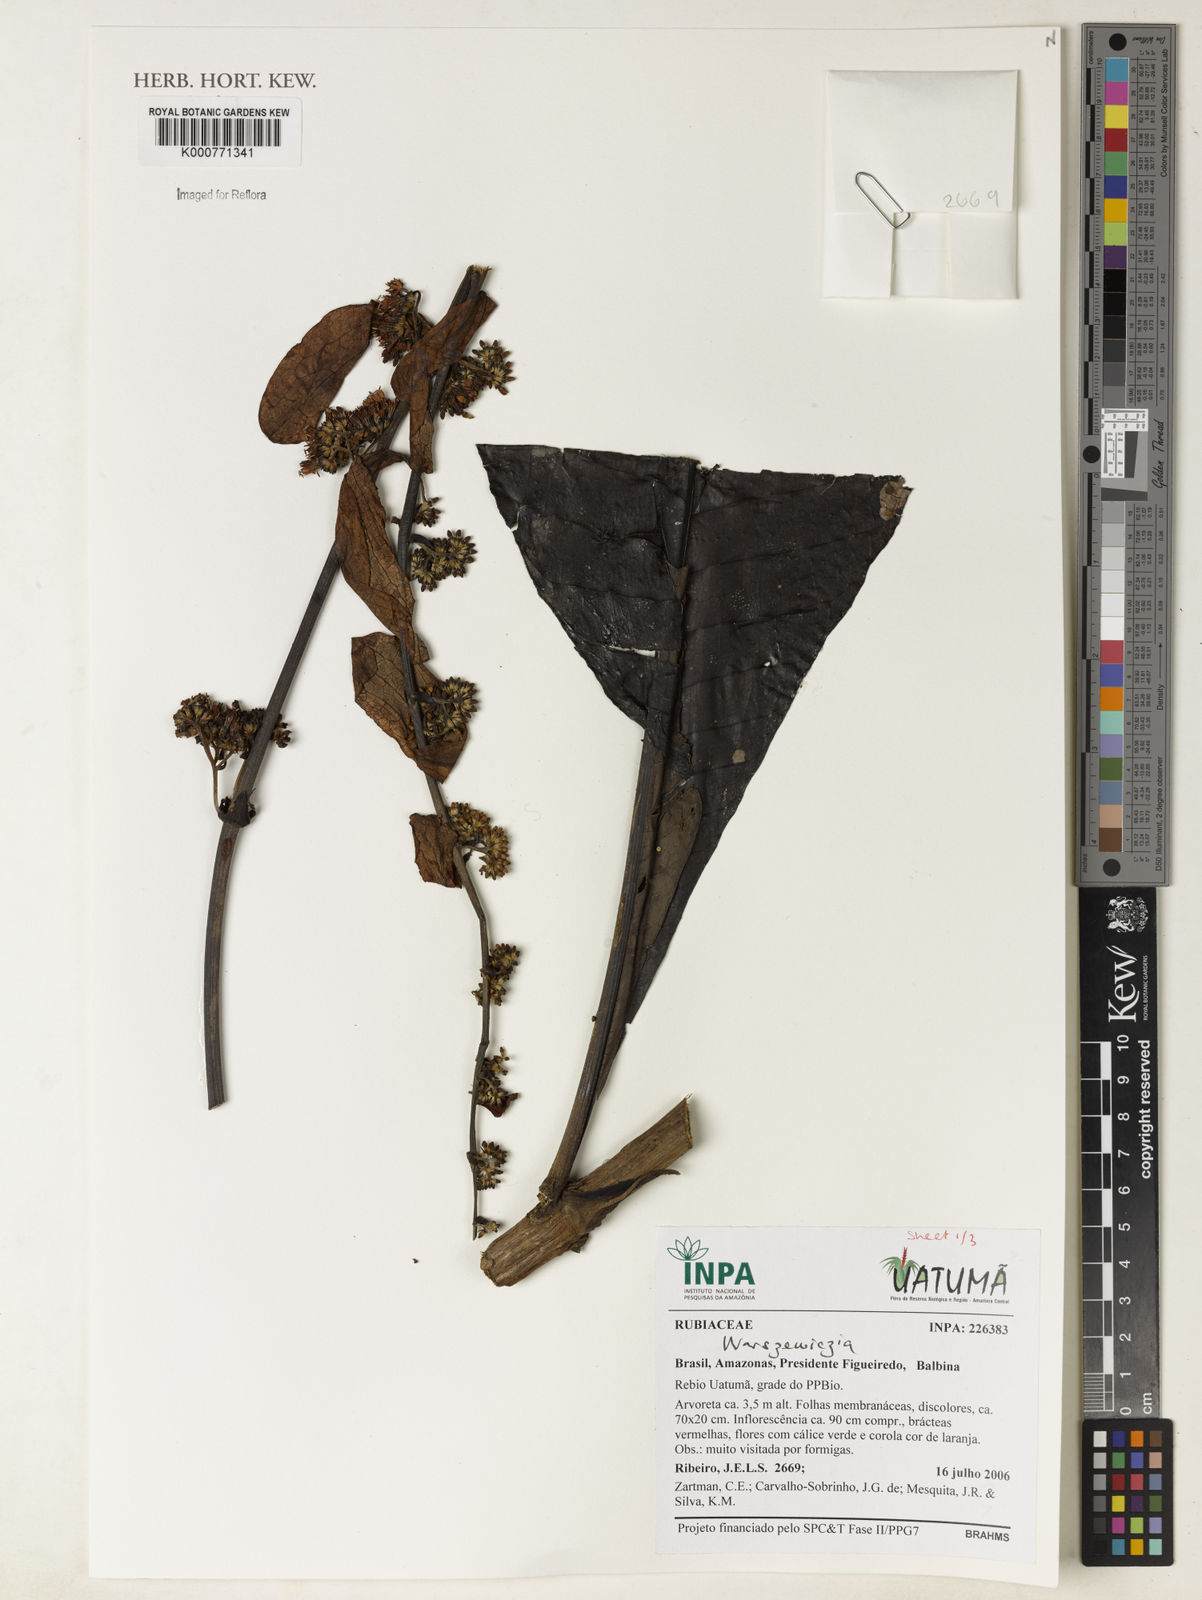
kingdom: Plantae
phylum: Tracheophyta
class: Magnoliopsida
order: Gentianales
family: Rubiaceae
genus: Warszewiczia
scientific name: Warszewiczia
